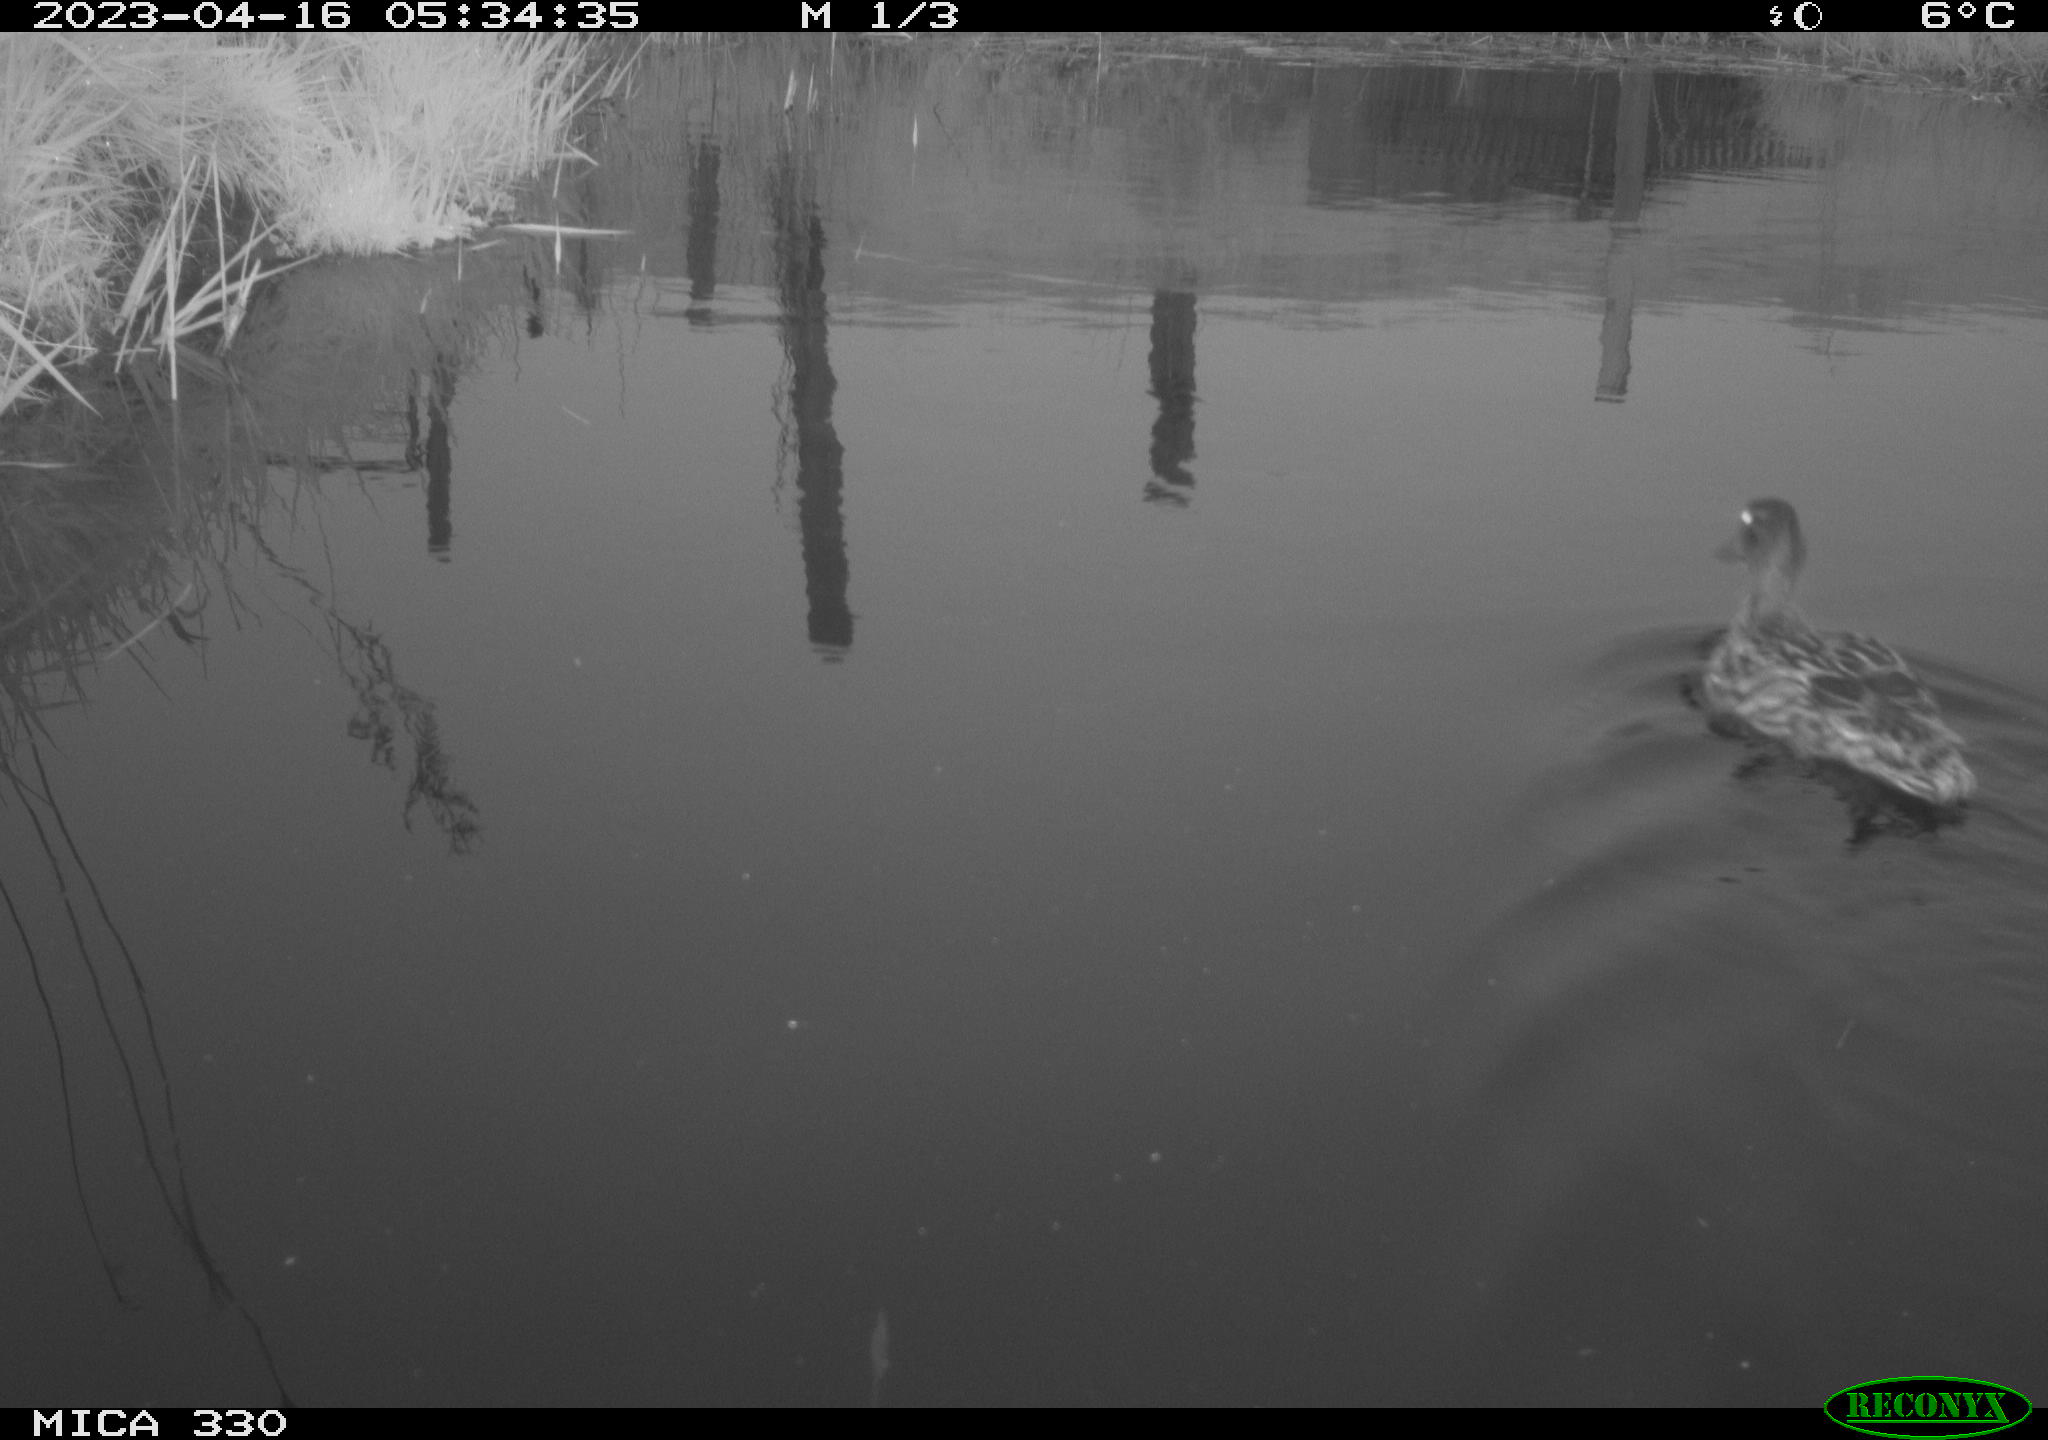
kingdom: Animalia
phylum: Chordata
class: Aves
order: Anseriformes
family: Anatidae
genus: Anas
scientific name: Anas
